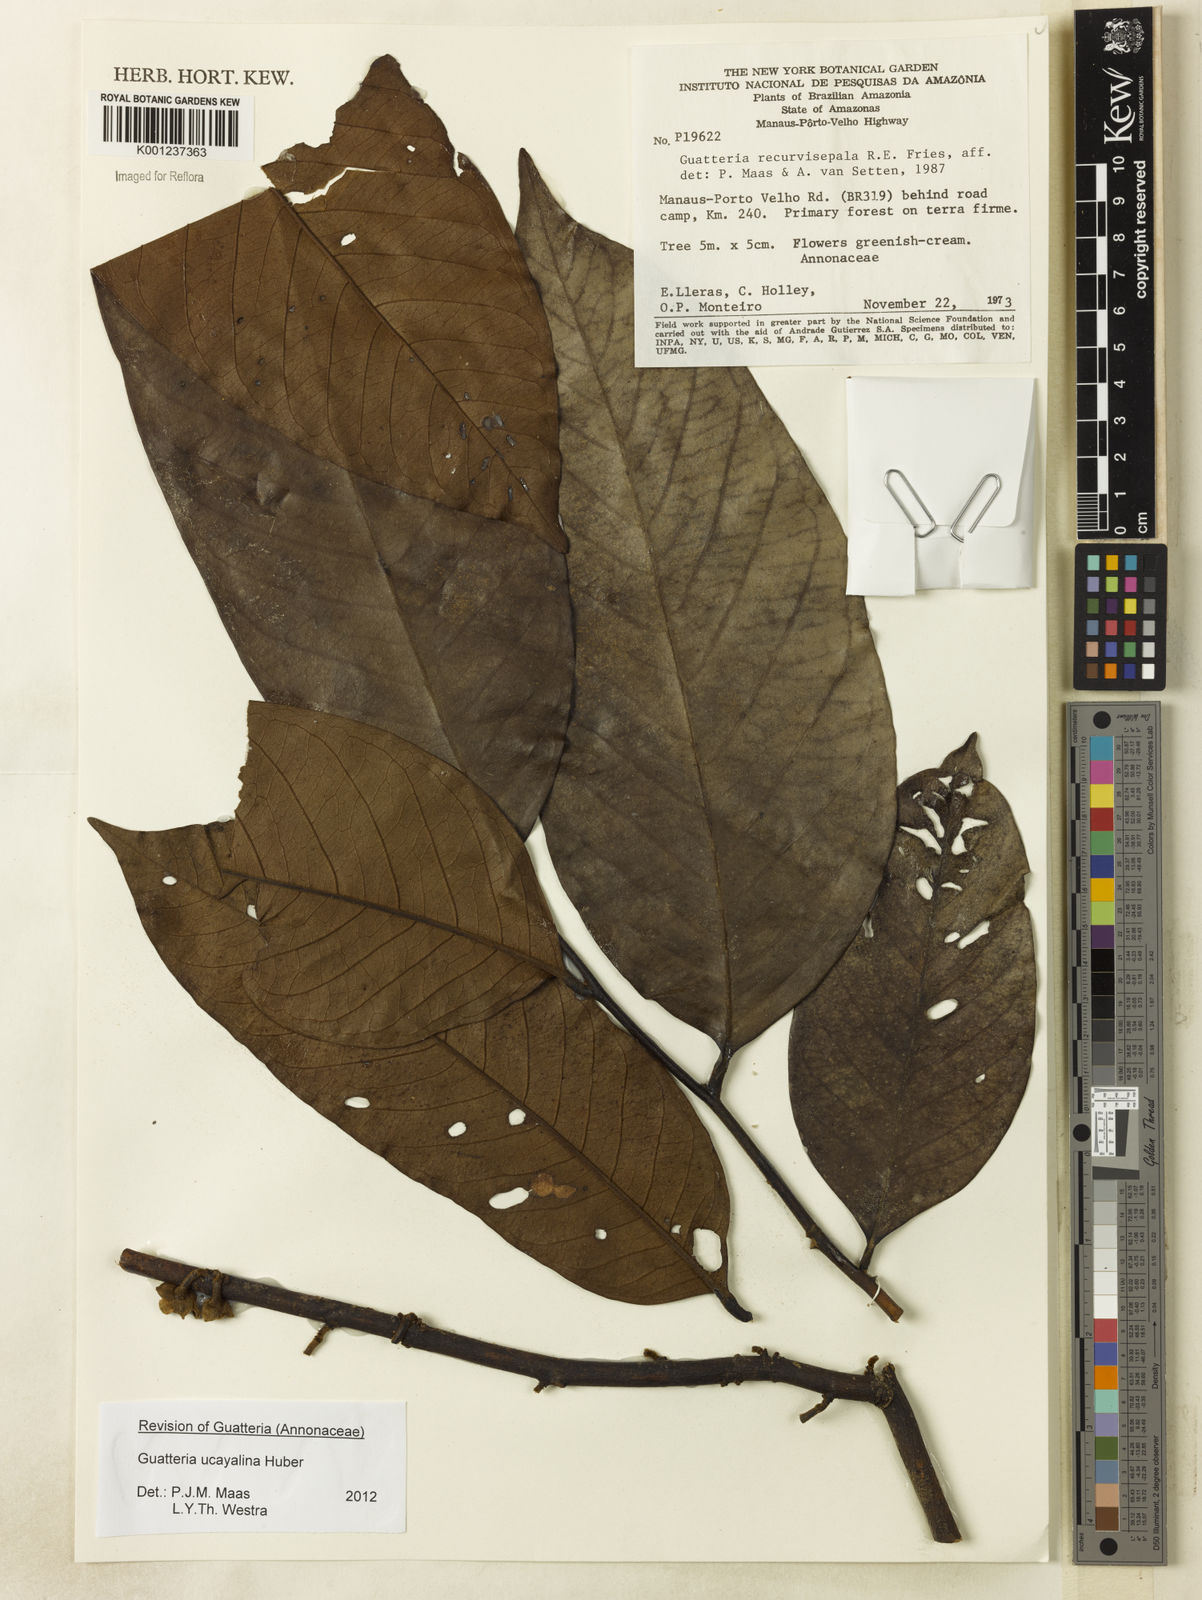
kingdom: Plantae
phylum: Tracheophyta
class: Magnoliopsida
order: Magnoliales
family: Annonaceae
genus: Guatteria
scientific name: Guatteria blepharophylla
